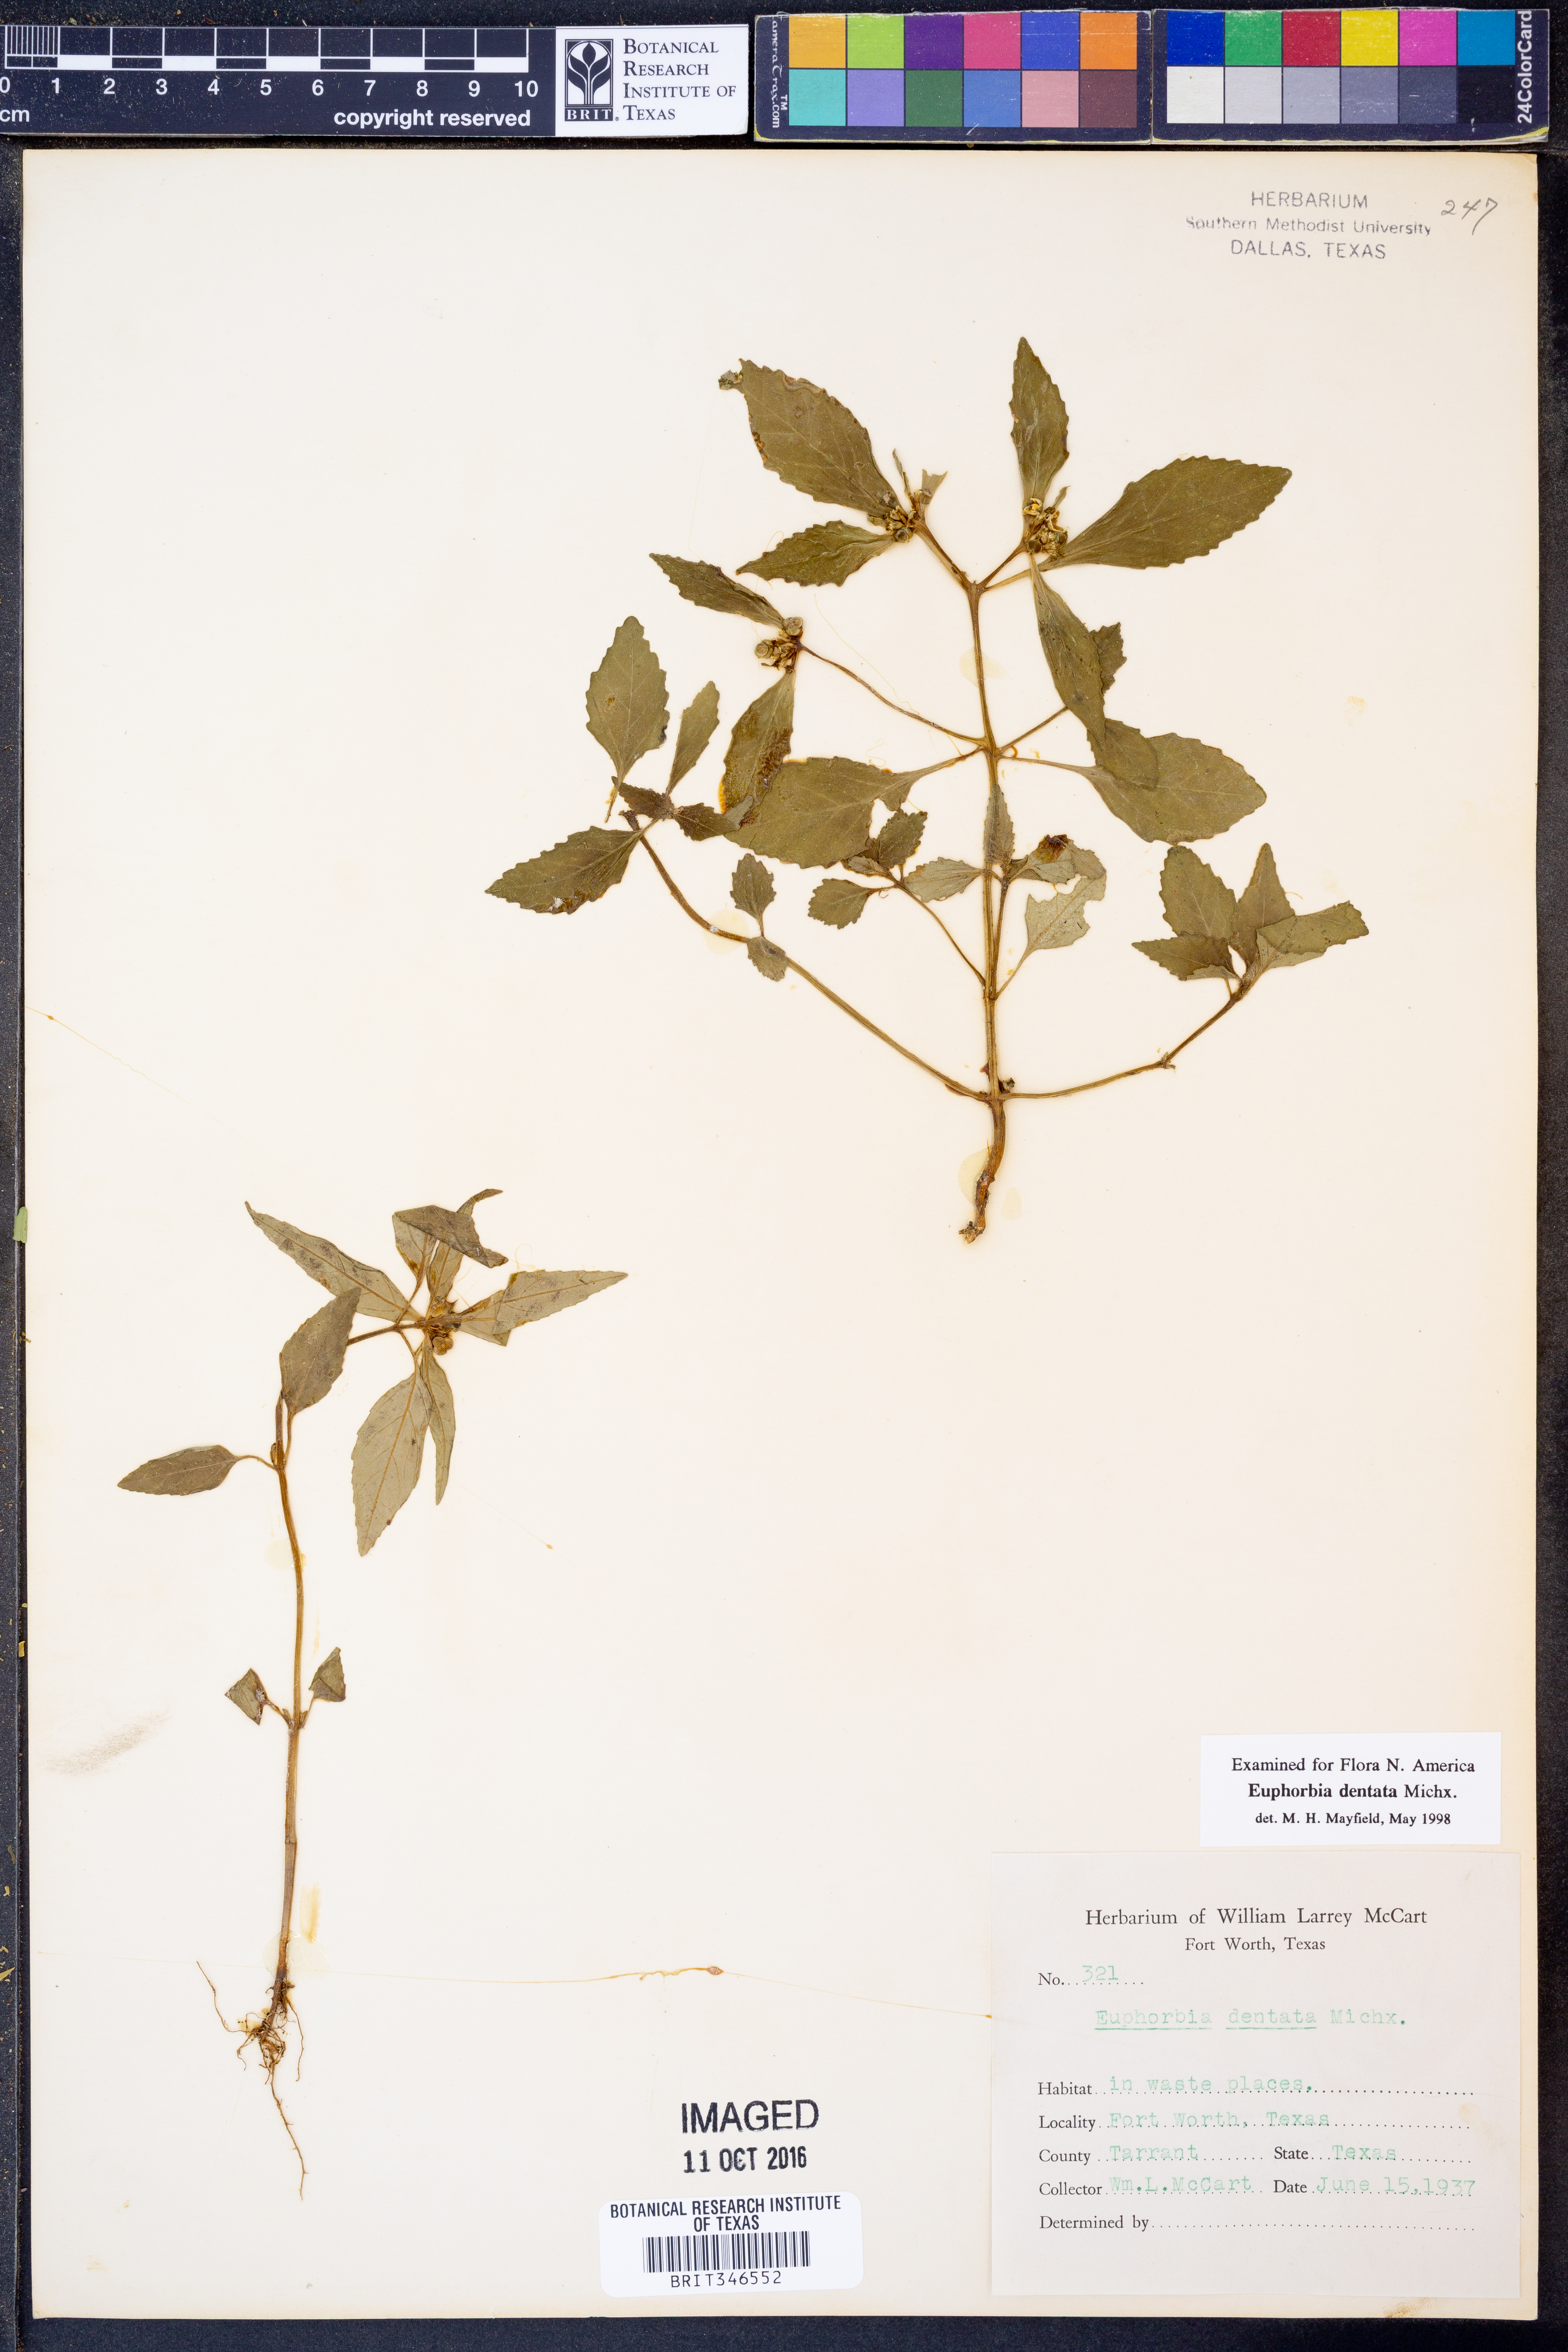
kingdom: Plantae
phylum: Tracheophyta
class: Magnoliopsida
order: Malpighiales
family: Euphorbiaceae
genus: Euphorbia
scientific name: Euphorbia dentata
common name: Dentate spurge
